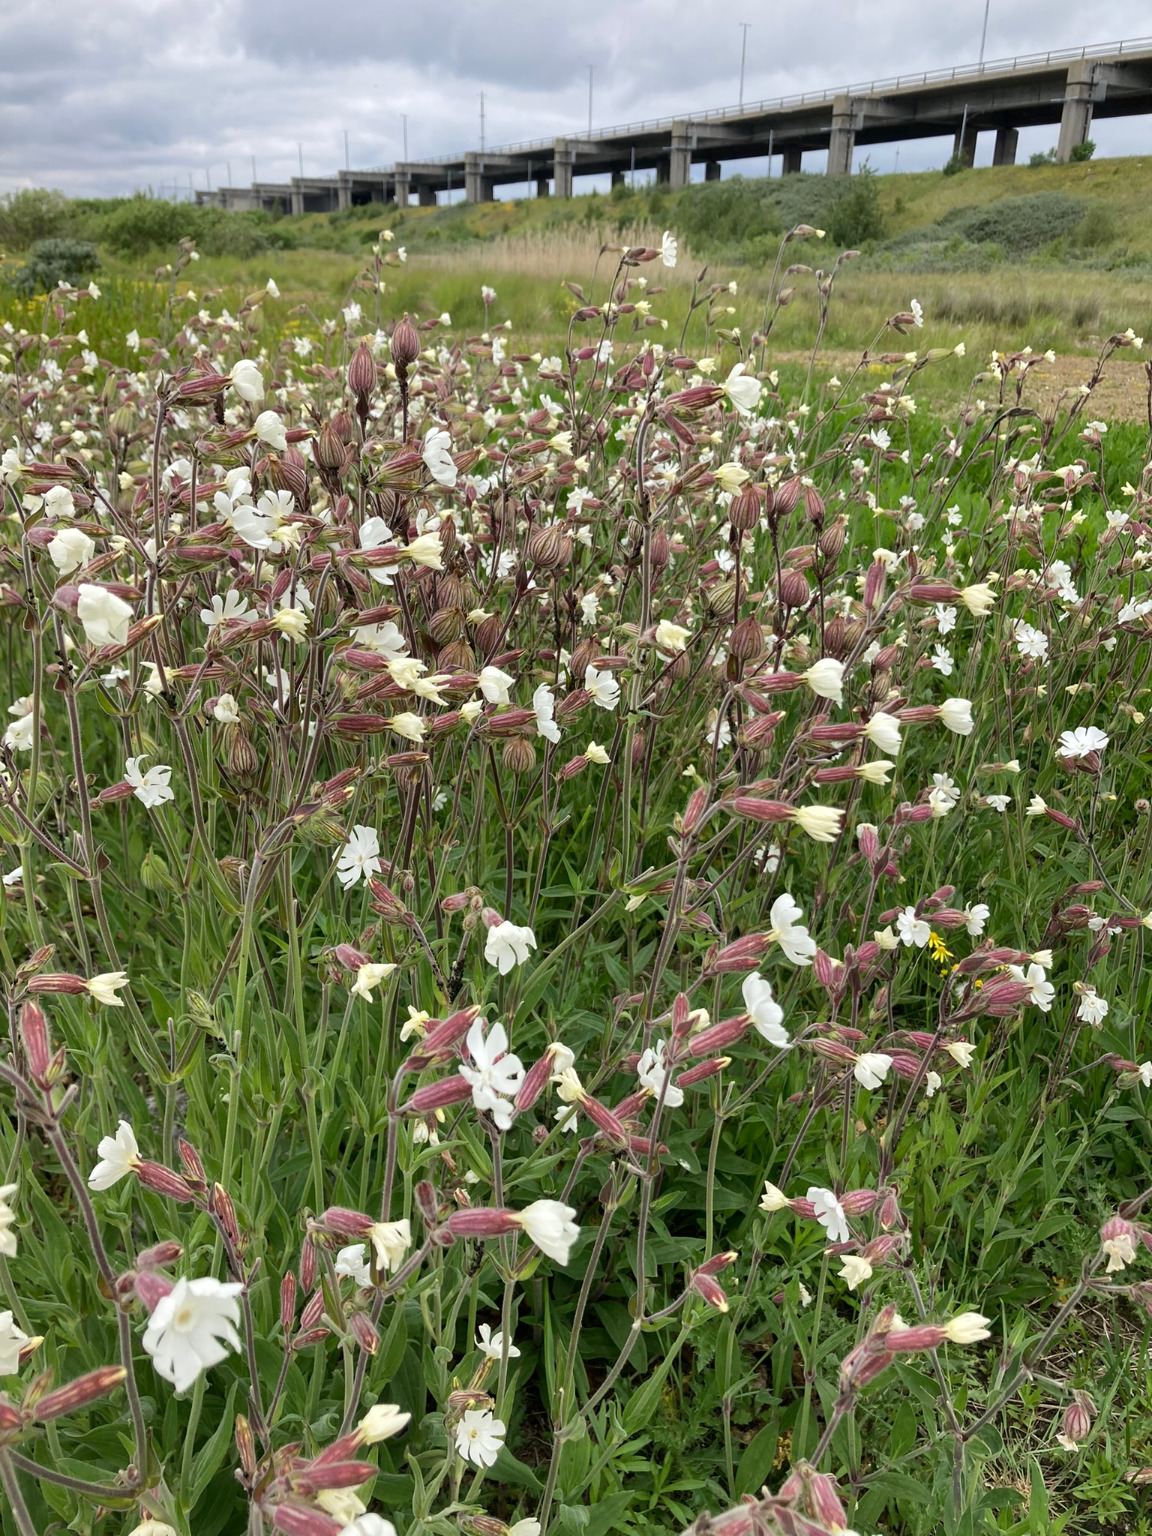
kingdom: Plantae
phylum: Tracheophyta
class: Magnoliopsida
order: Caryophyllales
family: Caryophyllaceae
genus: Silene
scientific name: Silene latifolia
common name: Aftenpragtstjerne
